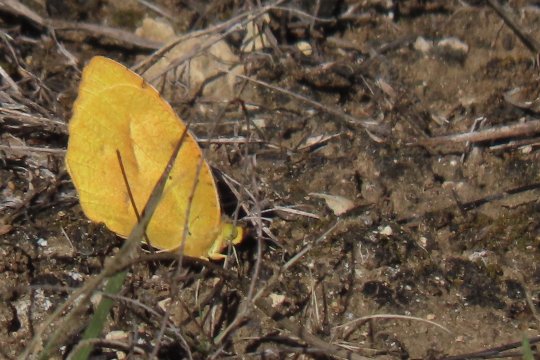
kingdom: Animalia
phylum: Arthropoda
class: Insecta
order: Lepidoptera
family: Pieridae
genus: Abaeis
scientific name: Abaeis nicippe
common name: Sleepy Orange
